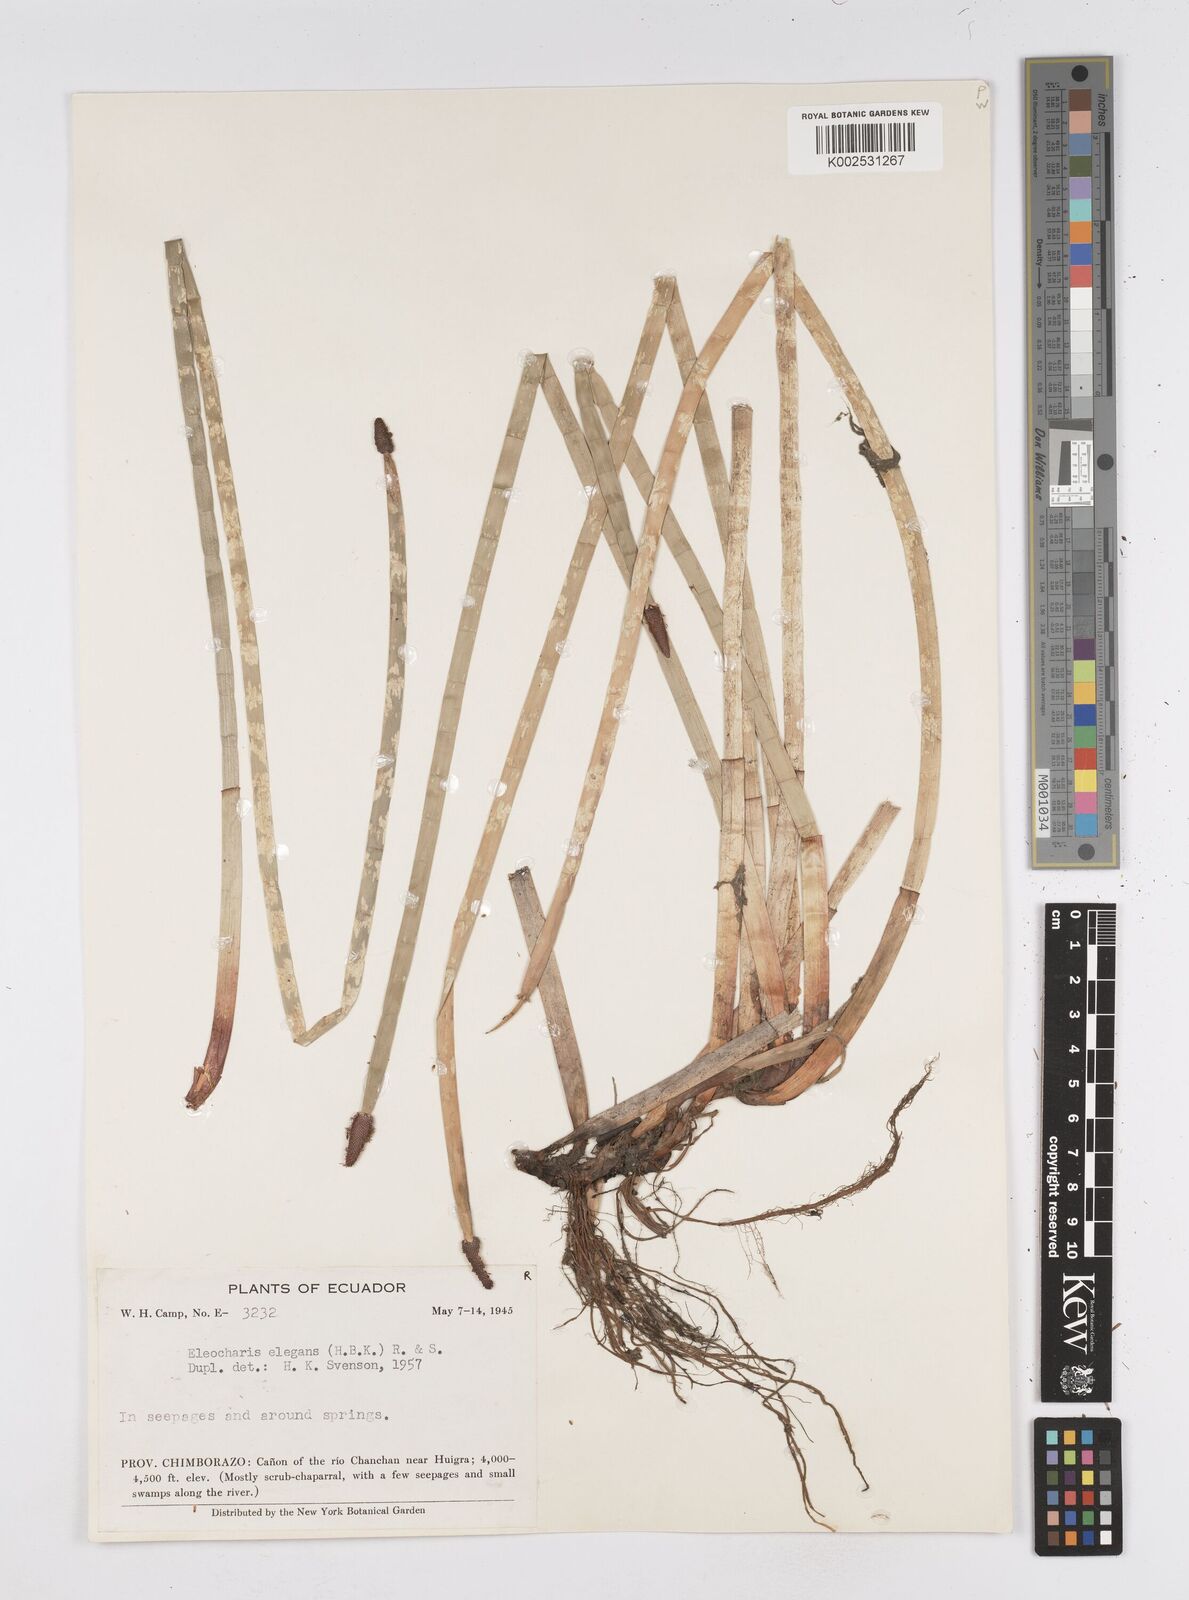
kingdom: Plantae
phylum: Tracheophyta
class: Liliopsida
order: Poales
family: Cyperaceae
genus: Eleocharis
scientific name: Eleocharis elegans
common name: Elegant spike-rush
